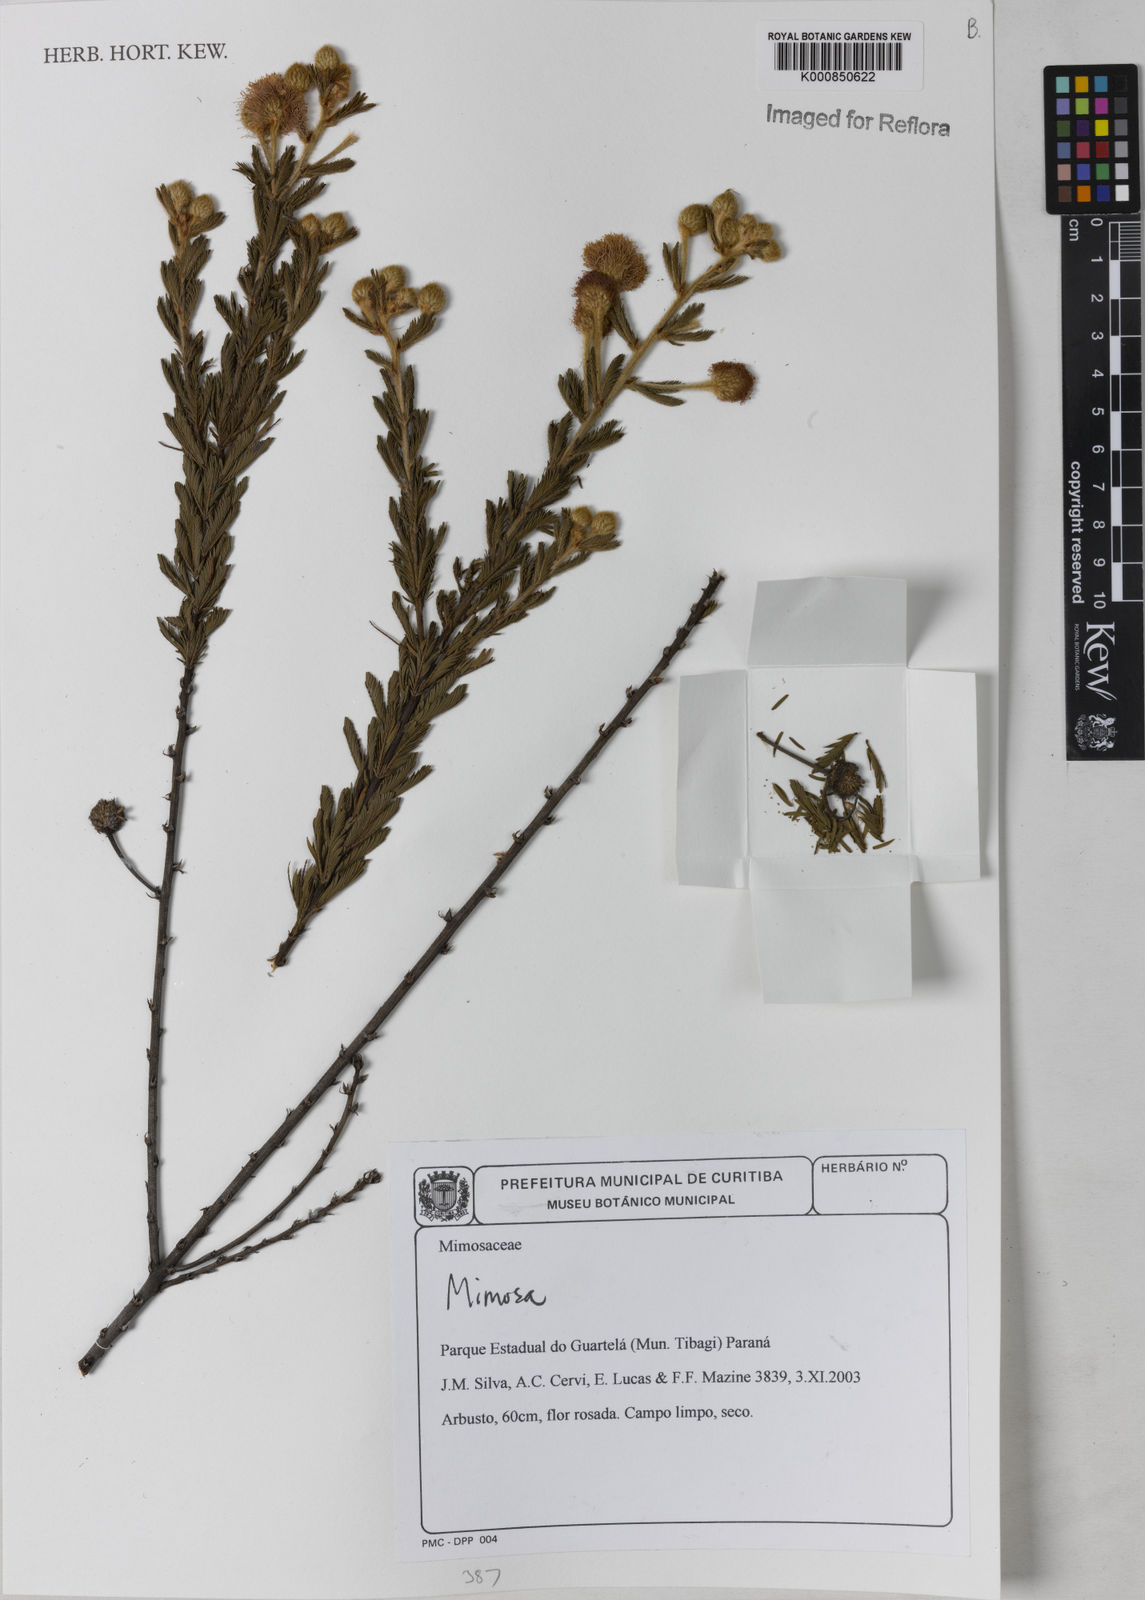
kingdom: Plantae
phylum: Tracheophyta
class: Magnoliopsida
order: Fabales
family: Fabaceae
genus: Mimosa
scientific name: Mimosa
